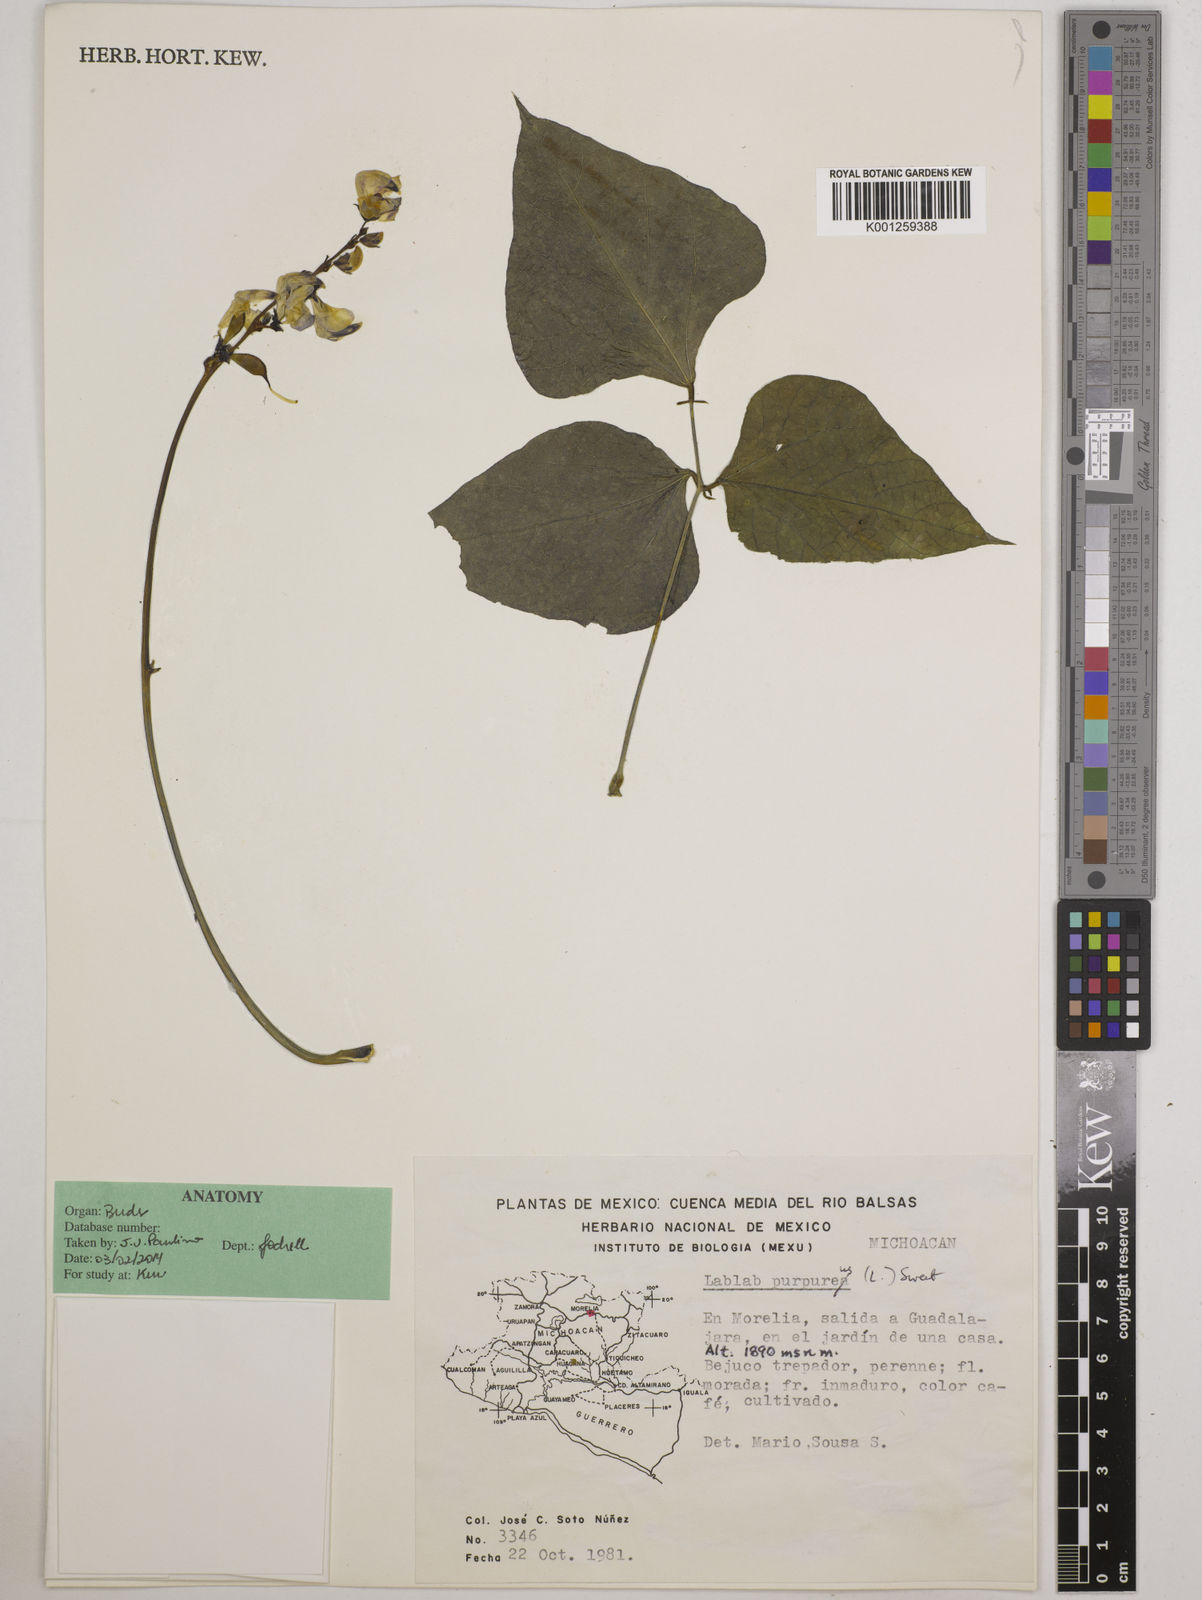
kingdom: Plantae
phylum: Tracheophyta
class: Magnoliopsida
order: Fabales
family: Fabaceae
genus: Lablab
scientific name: Lablab purpureus
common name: Lablab-bean
